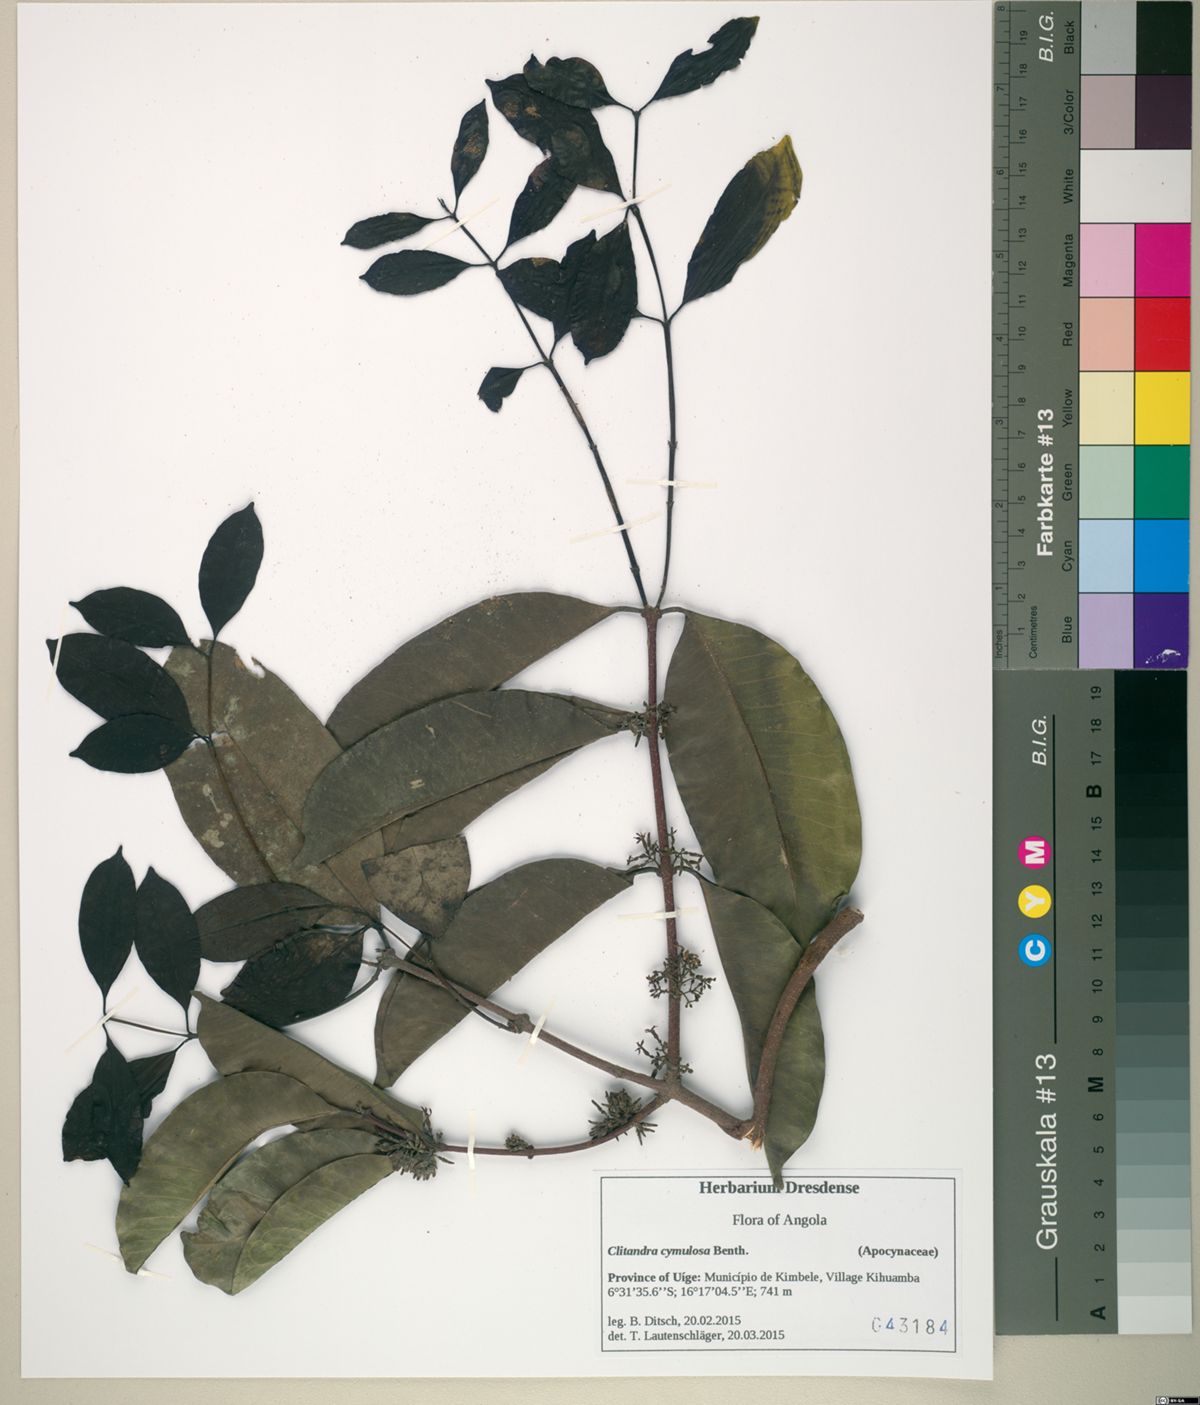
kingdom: Plantae
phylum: Tracheophyta
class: Magnoliopsida
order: Gentianales
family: Apocynaceae
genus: Clitandra
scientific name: Clitandra cymulosa
